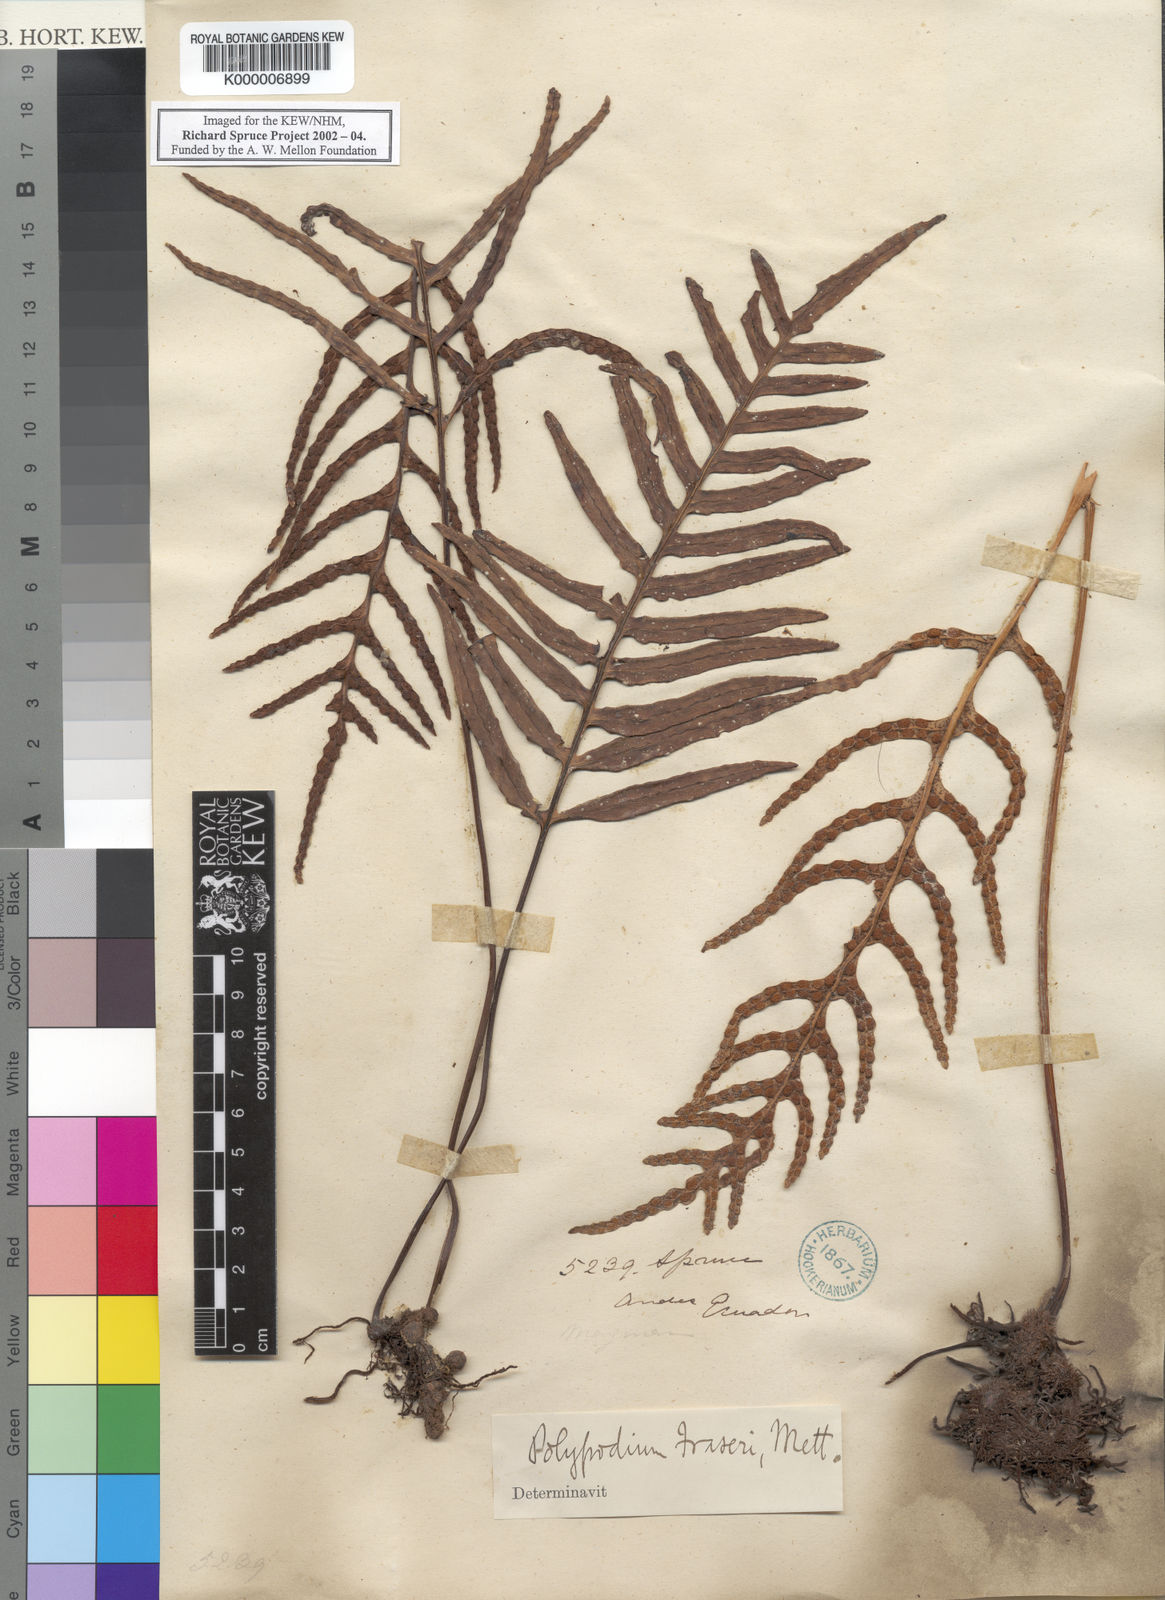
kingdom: Plantae
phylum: Tracheophyta
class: Polypodiopsida
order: Polypodiales
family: Polypodiaceae
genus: Pleopeltis
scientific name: Pleopeltis fraseri
